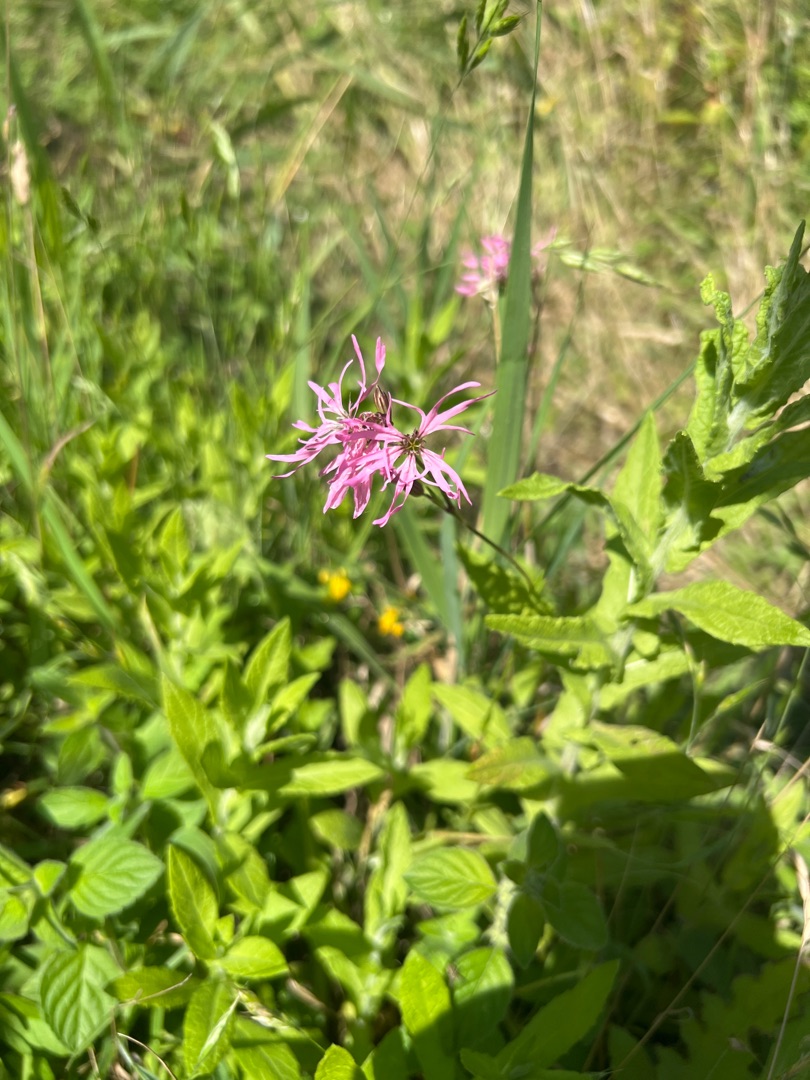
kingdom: Plantae
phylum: Tracheophyta
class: Magnoliopsida
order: Caryophyllales
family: Caryophyllaceae
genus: Silene
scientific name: Silene flos-cuculi
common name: Trævlekrone
